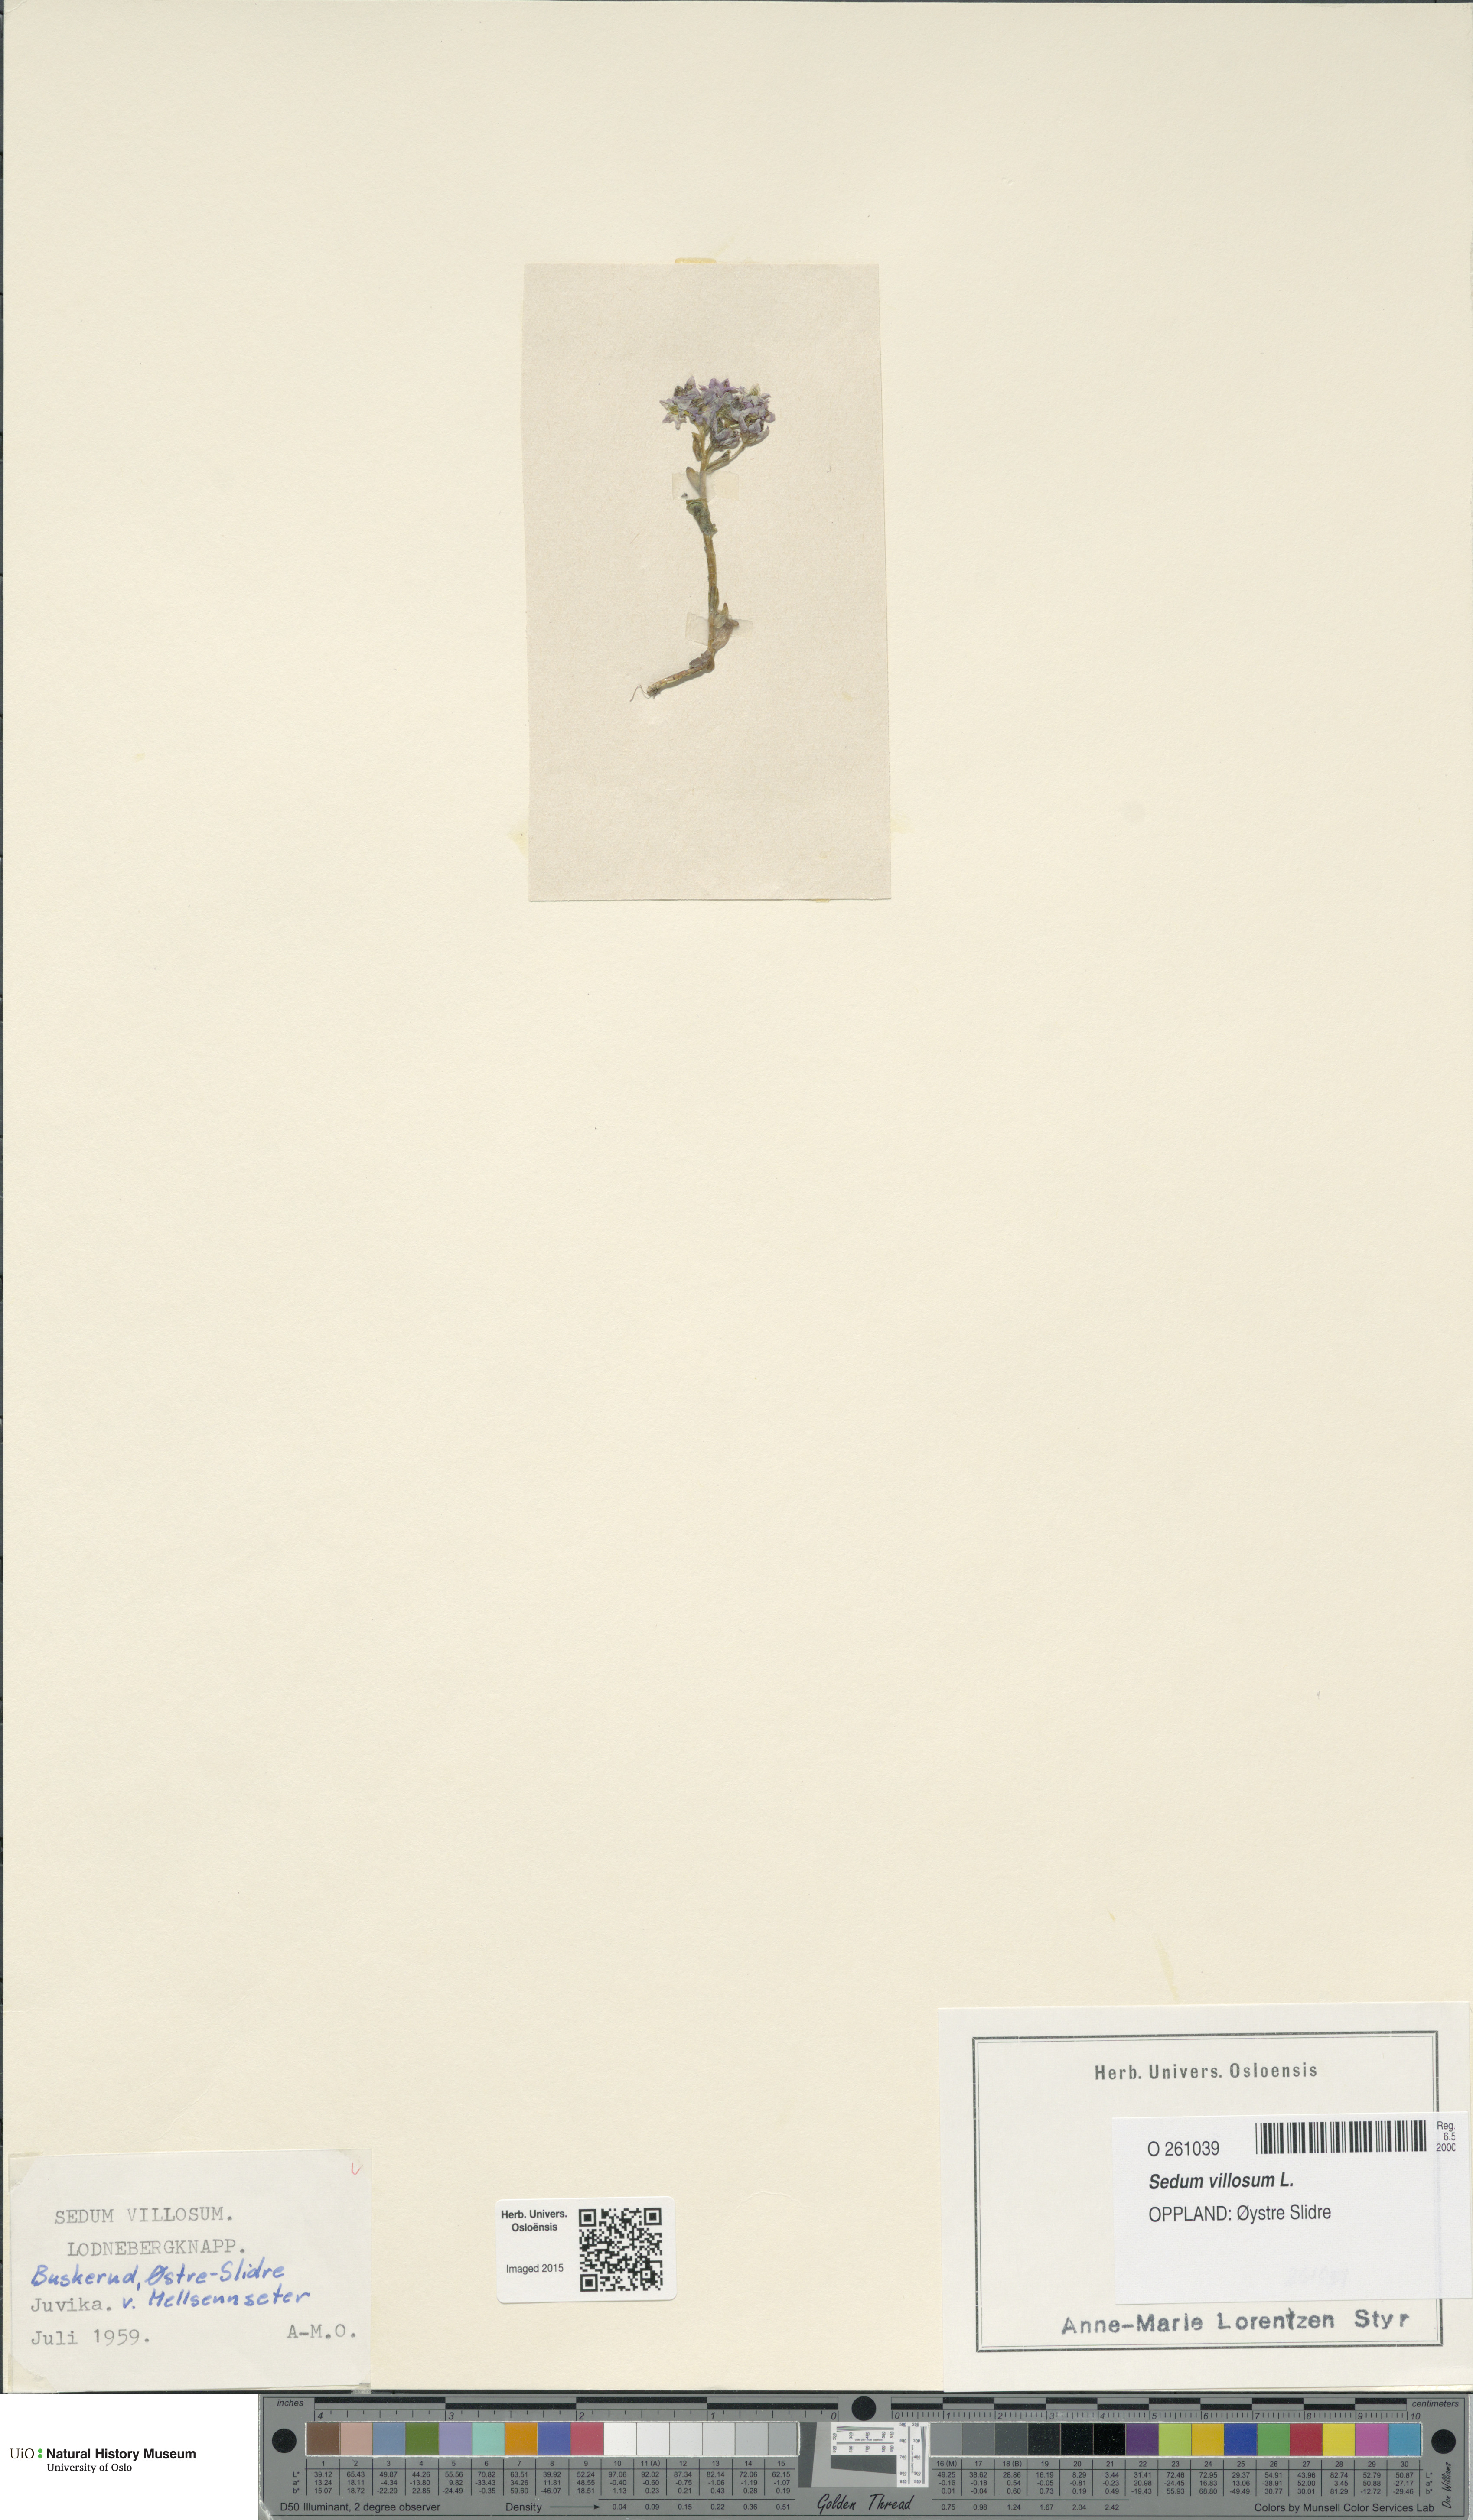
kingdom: Plantae
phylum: Tracheophyta
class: Magnoliopsida
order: Saxifragales
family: Crassulaceae
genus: Sedum
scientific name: Sedum villosum
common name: Hairy stonecrop
